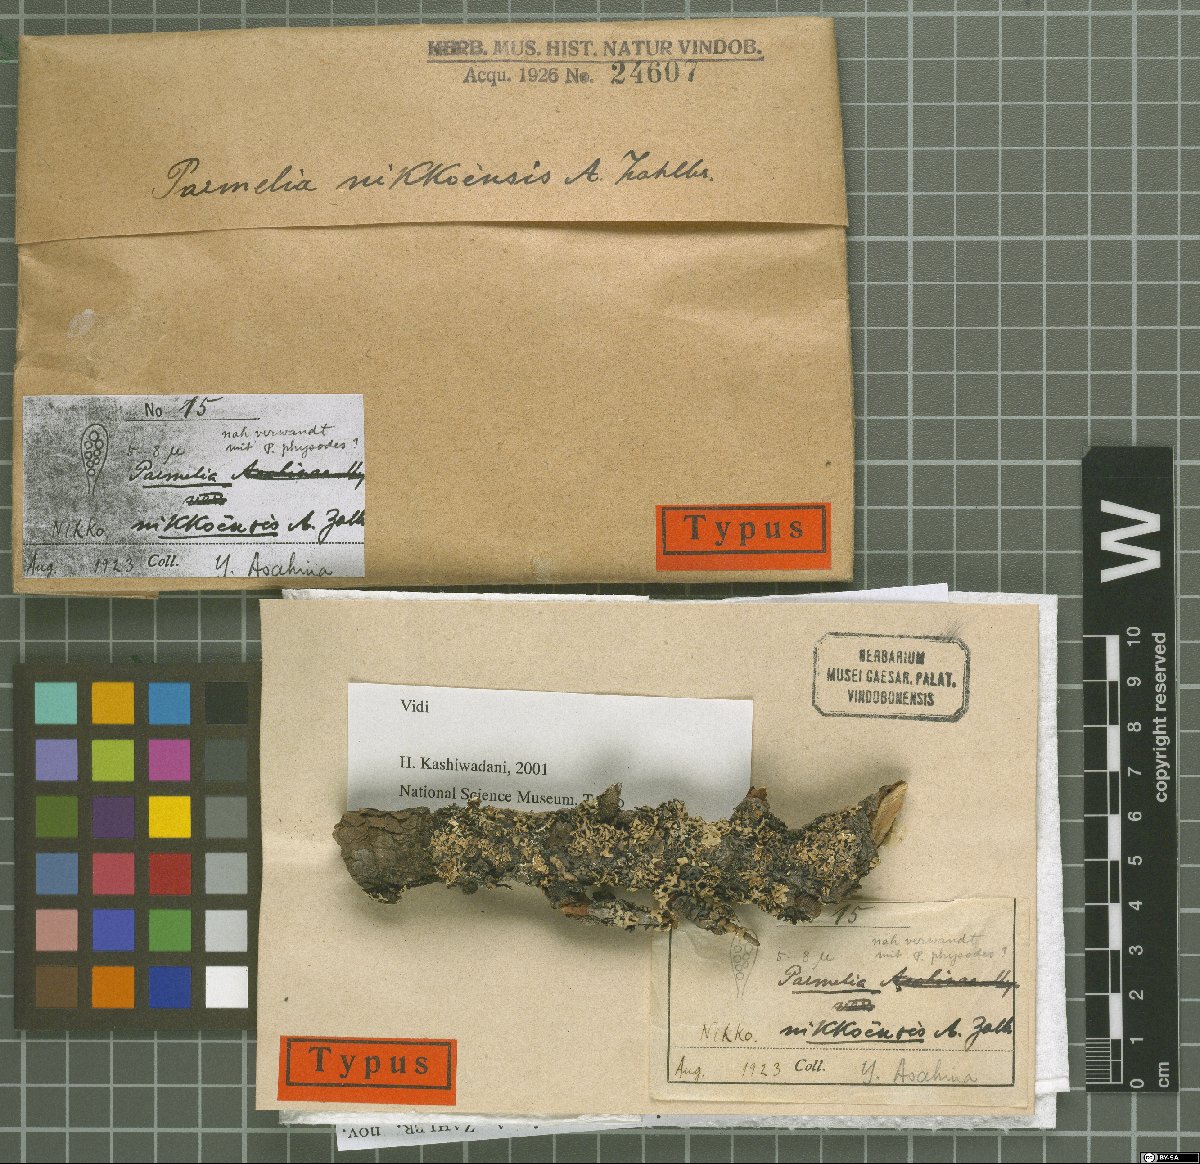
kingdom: Fungi
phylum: Ascomycota
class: Lecanoromycetes
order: Lecanorales
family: Parmeliaceae
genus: Parmelia
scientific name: Parmelia nikkoensis
